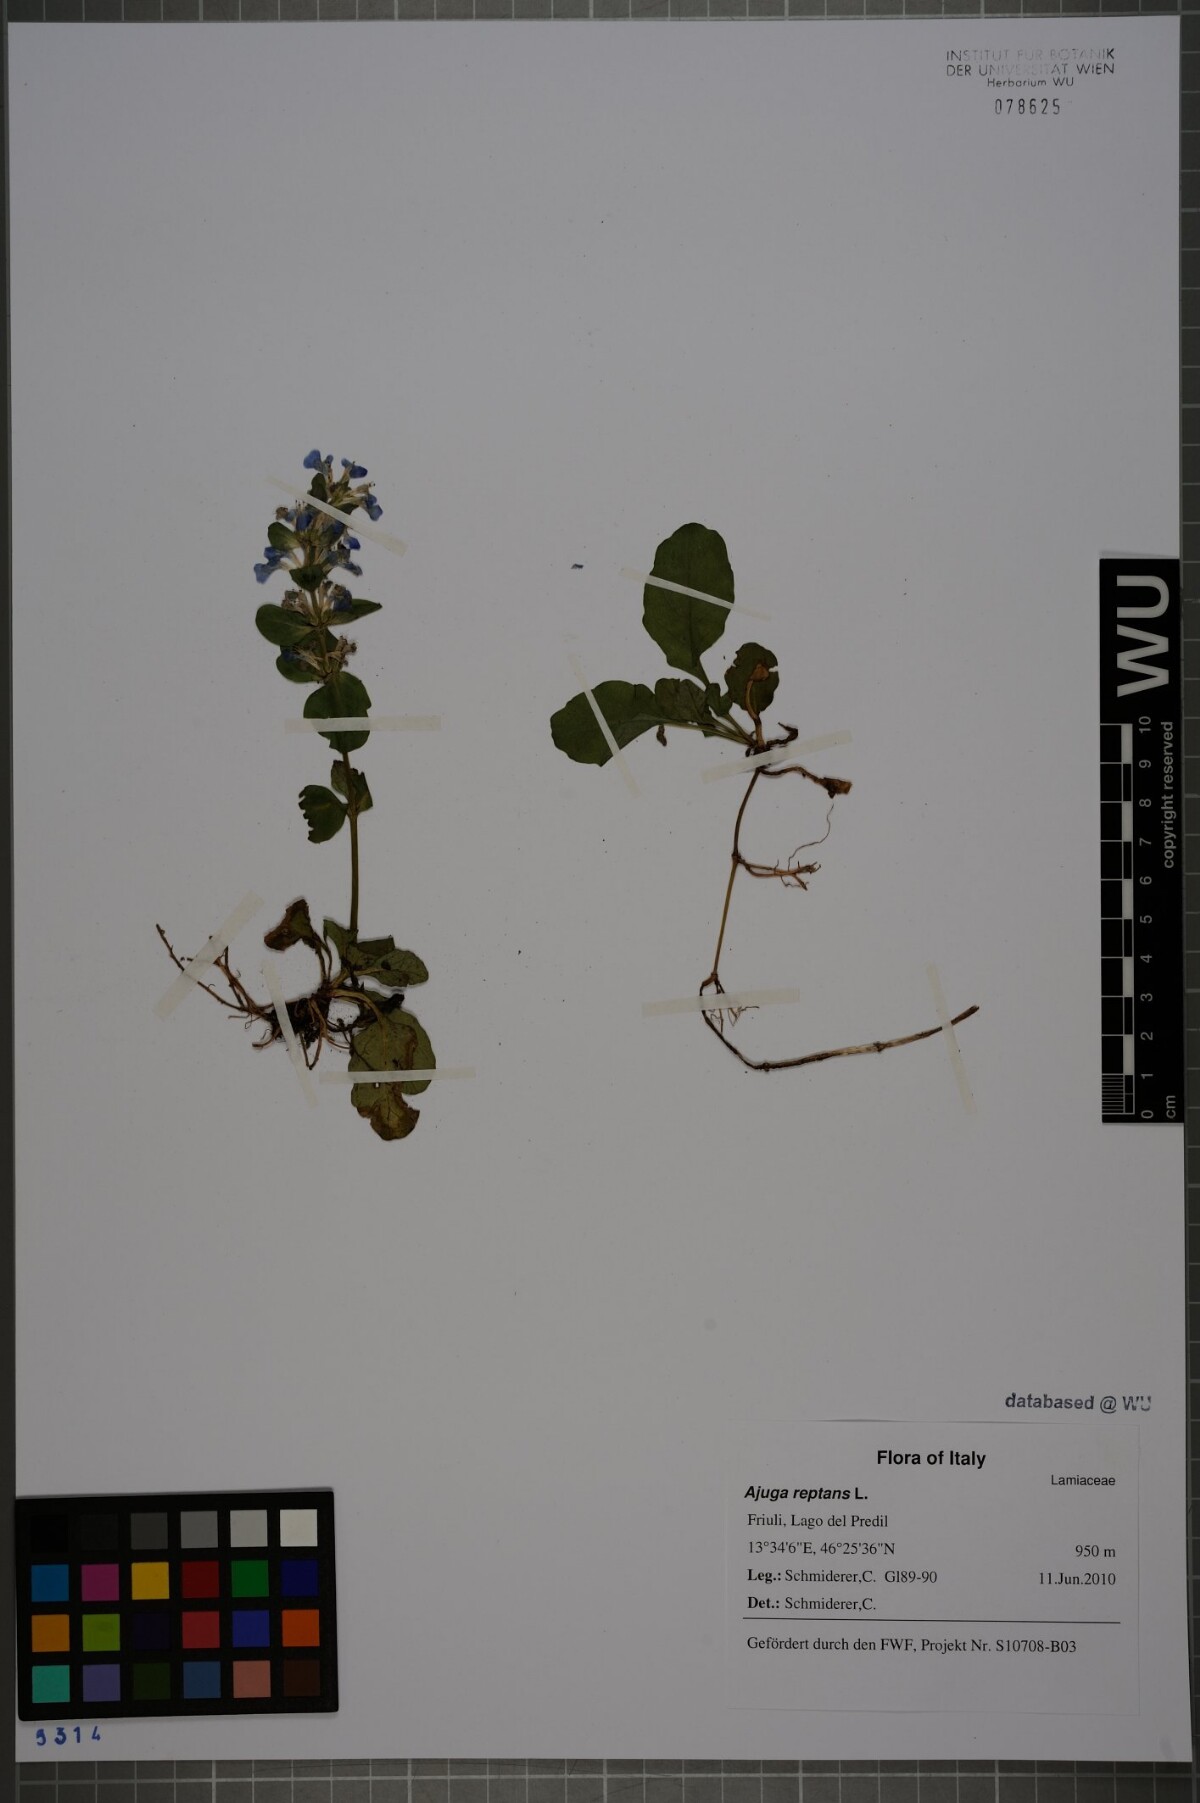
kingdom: Plantae
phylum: Tracheophyta
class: Magnoliopsida
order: Lamiales
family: Lamiaceae
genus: Ajuga
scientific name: Ajuga reptans
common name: Bugle
